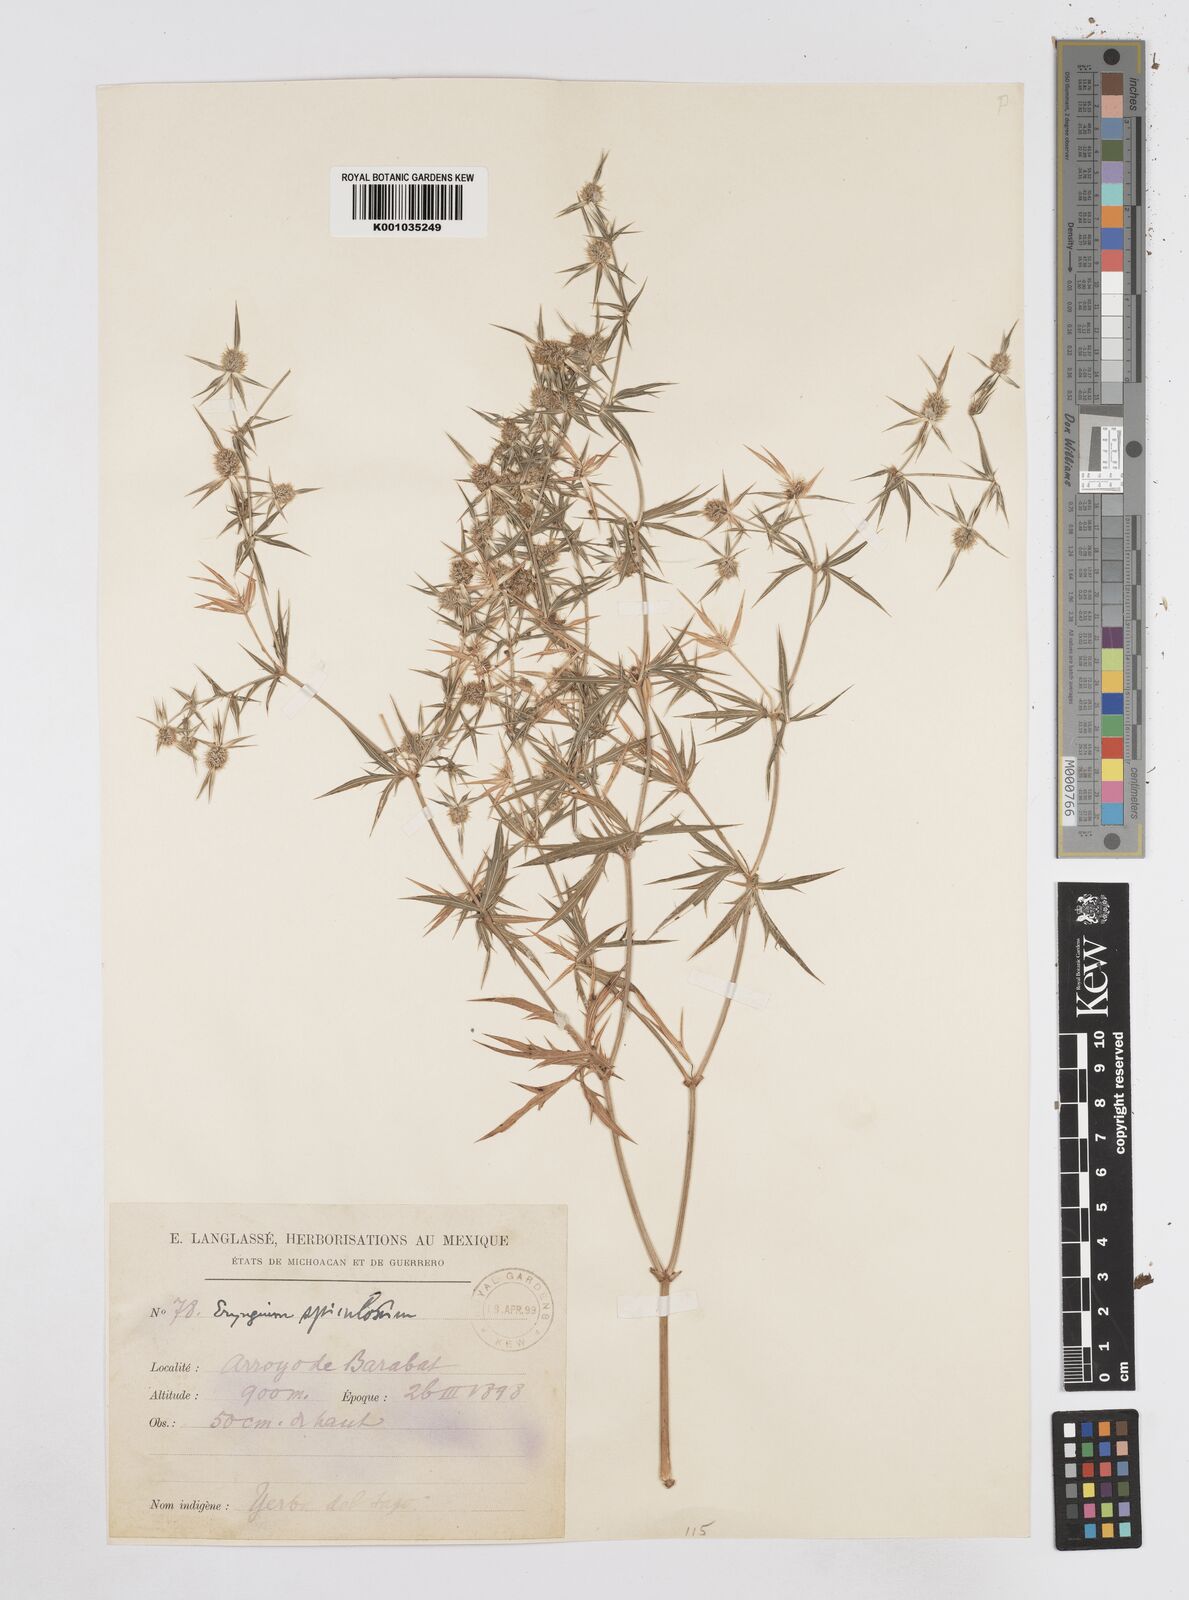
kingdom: Plantae
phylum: Tracheophyta
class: Magnoliopsida
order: Apiales
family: Apiaceae
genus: Eryngium
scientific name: Eryngium haenkei
